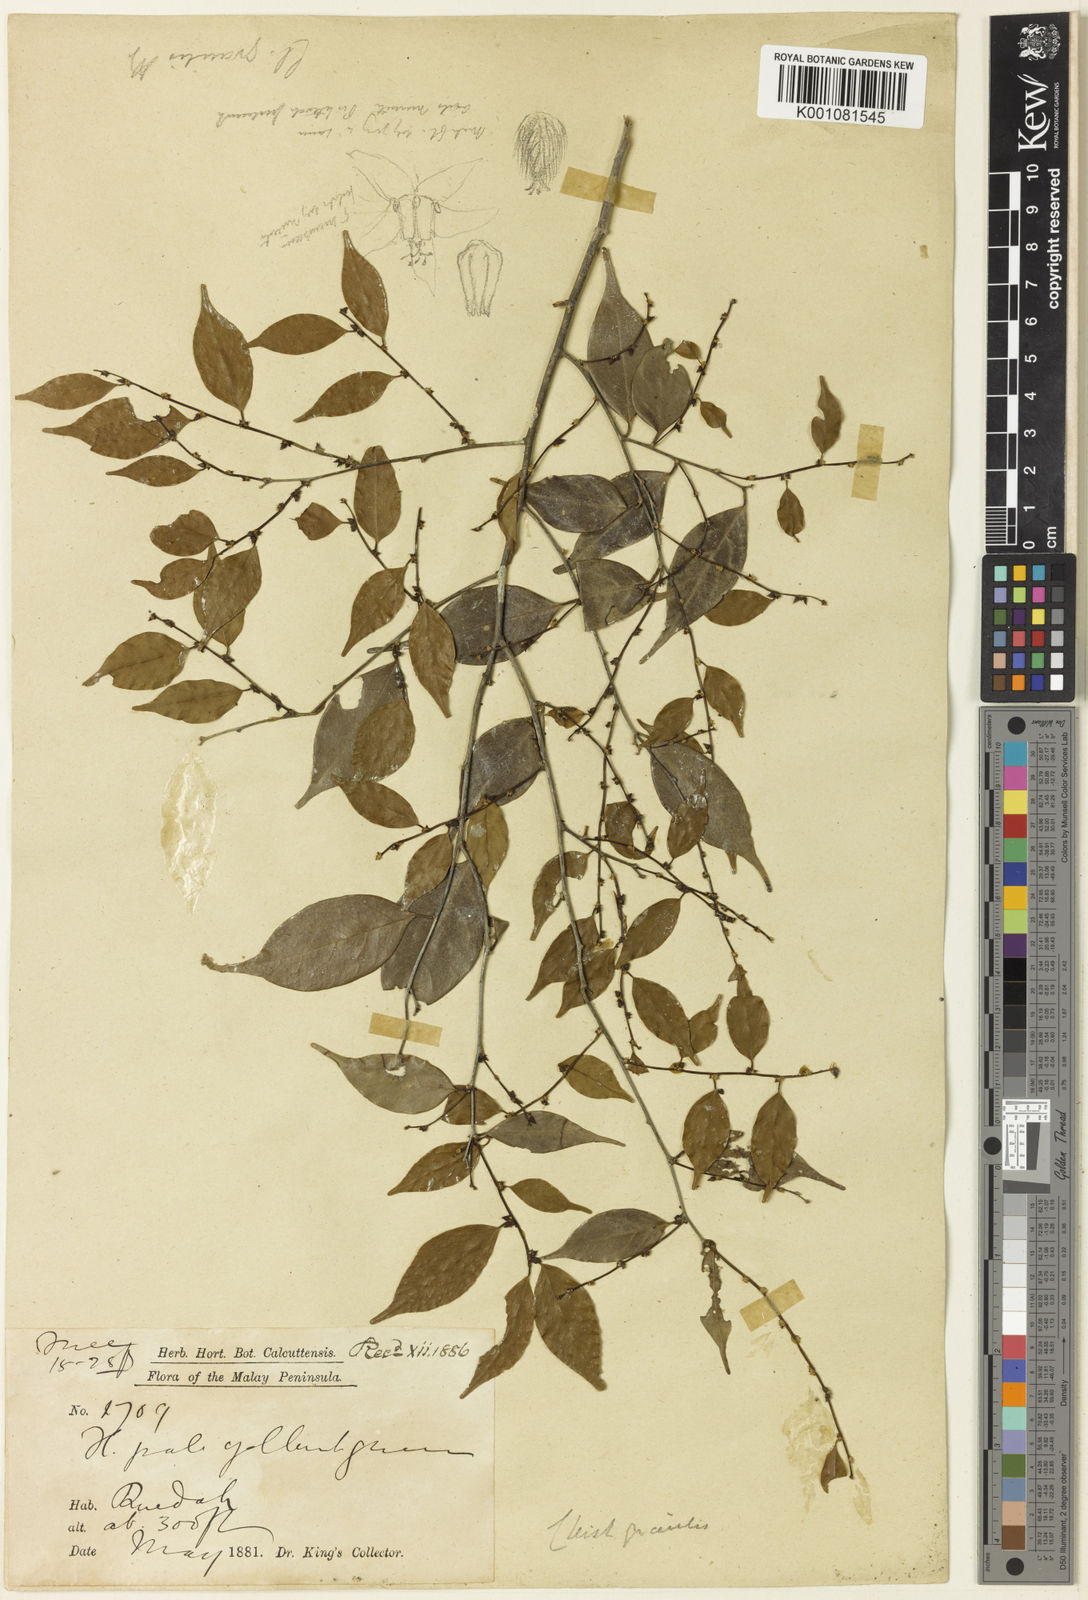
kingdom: Plantae
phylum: Tracheophyta
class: Magnoliopsida
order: Malpighiales
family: Phyllanthaceae
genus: Cleistanthus
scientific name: Cleistanthus gracilis
